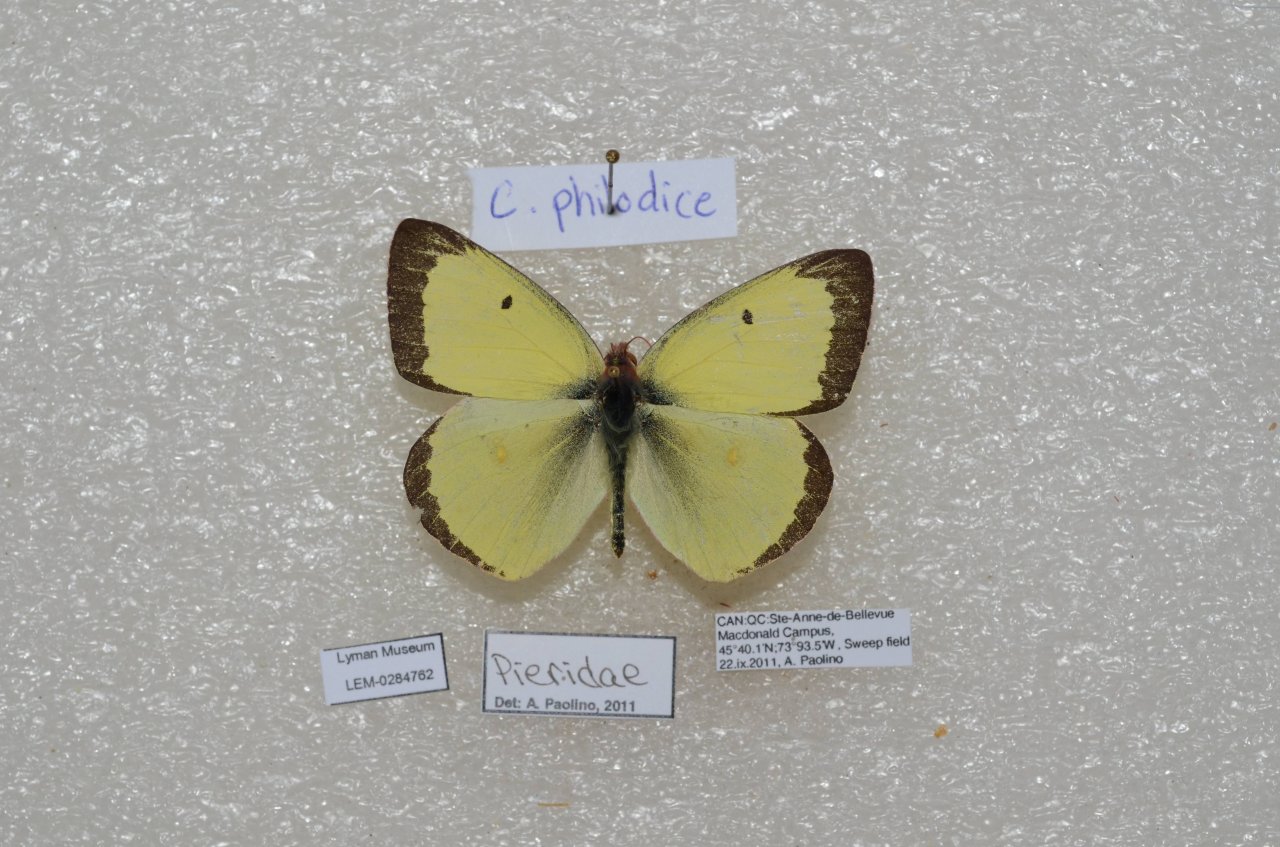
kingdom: Animalia
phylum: Arthropoda
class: Insecta
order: Lepidoptera
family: Pieridae
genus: Colias
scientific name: Colias philodice
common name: Clouded Sulphur
